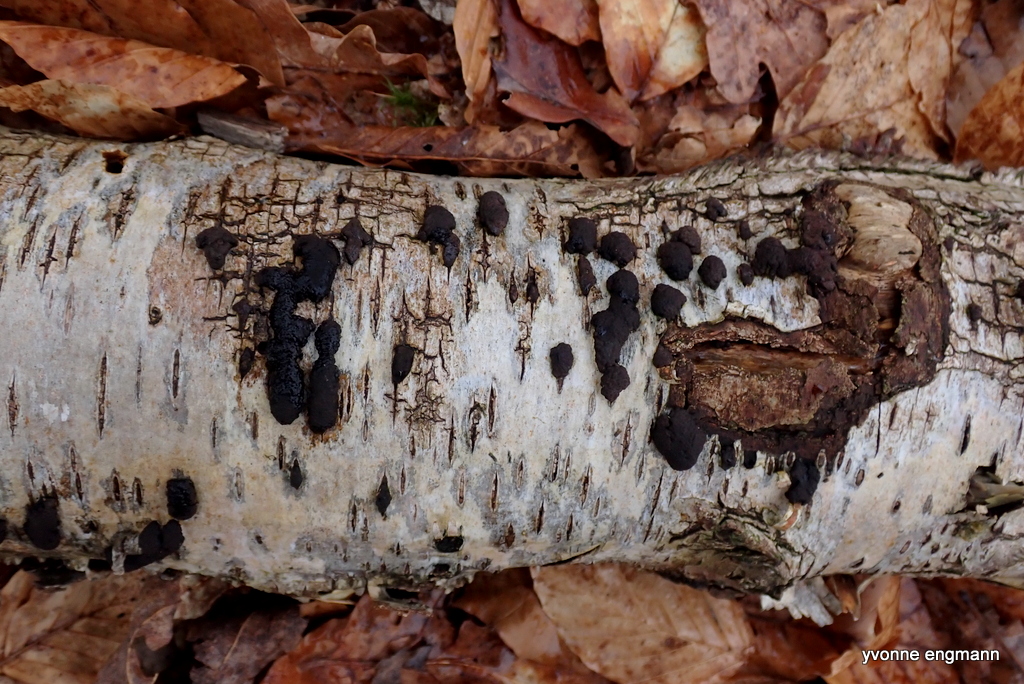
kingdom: Fungi
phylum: Ascomycota
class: Sordariomycetes
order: Xylariales
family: Hypoxylaceae
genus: Jackrogersella
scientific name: Jackrogersella multiformis
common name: foranderlig kulbær
